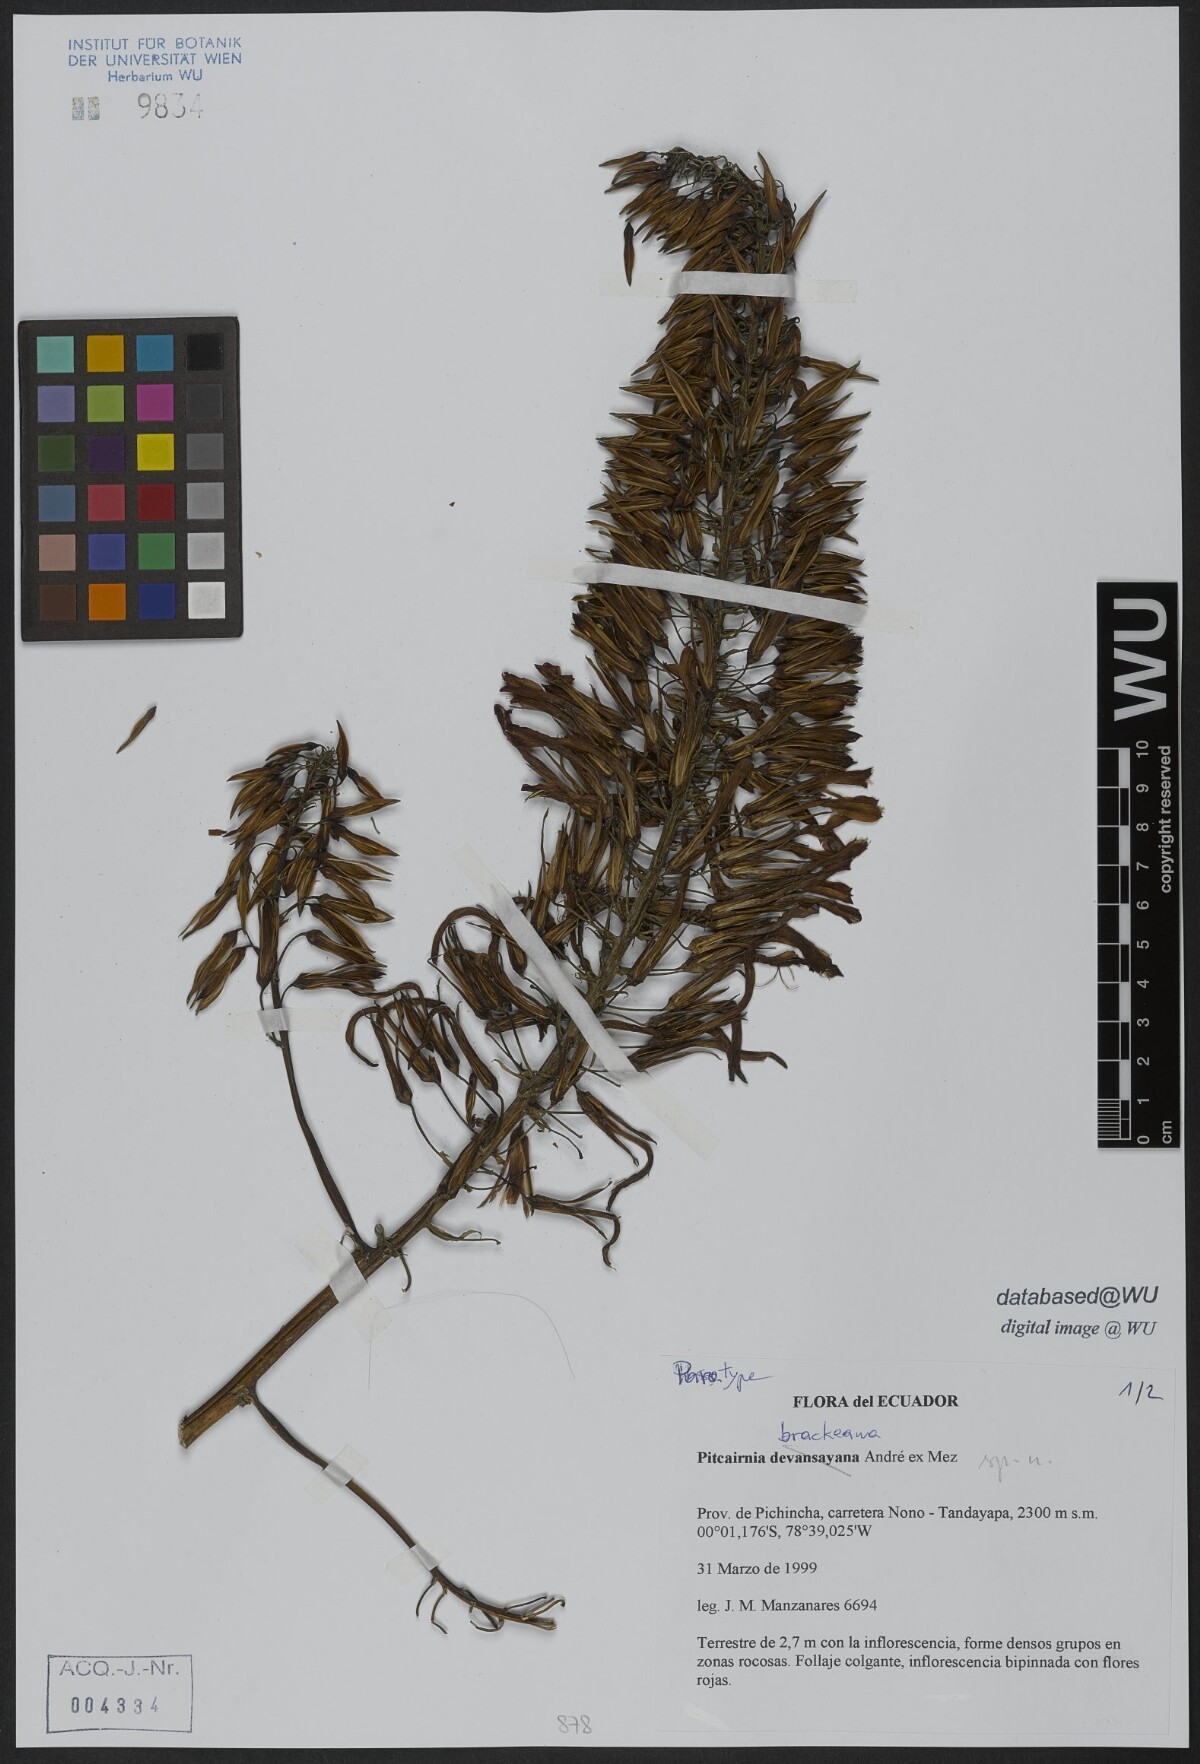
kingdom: Plantae
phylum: Tracheophyta
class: Liliopsida
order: Poales
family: Bromeliaceae
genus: Pitcairnia
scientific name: Pitcairnia brackeana
